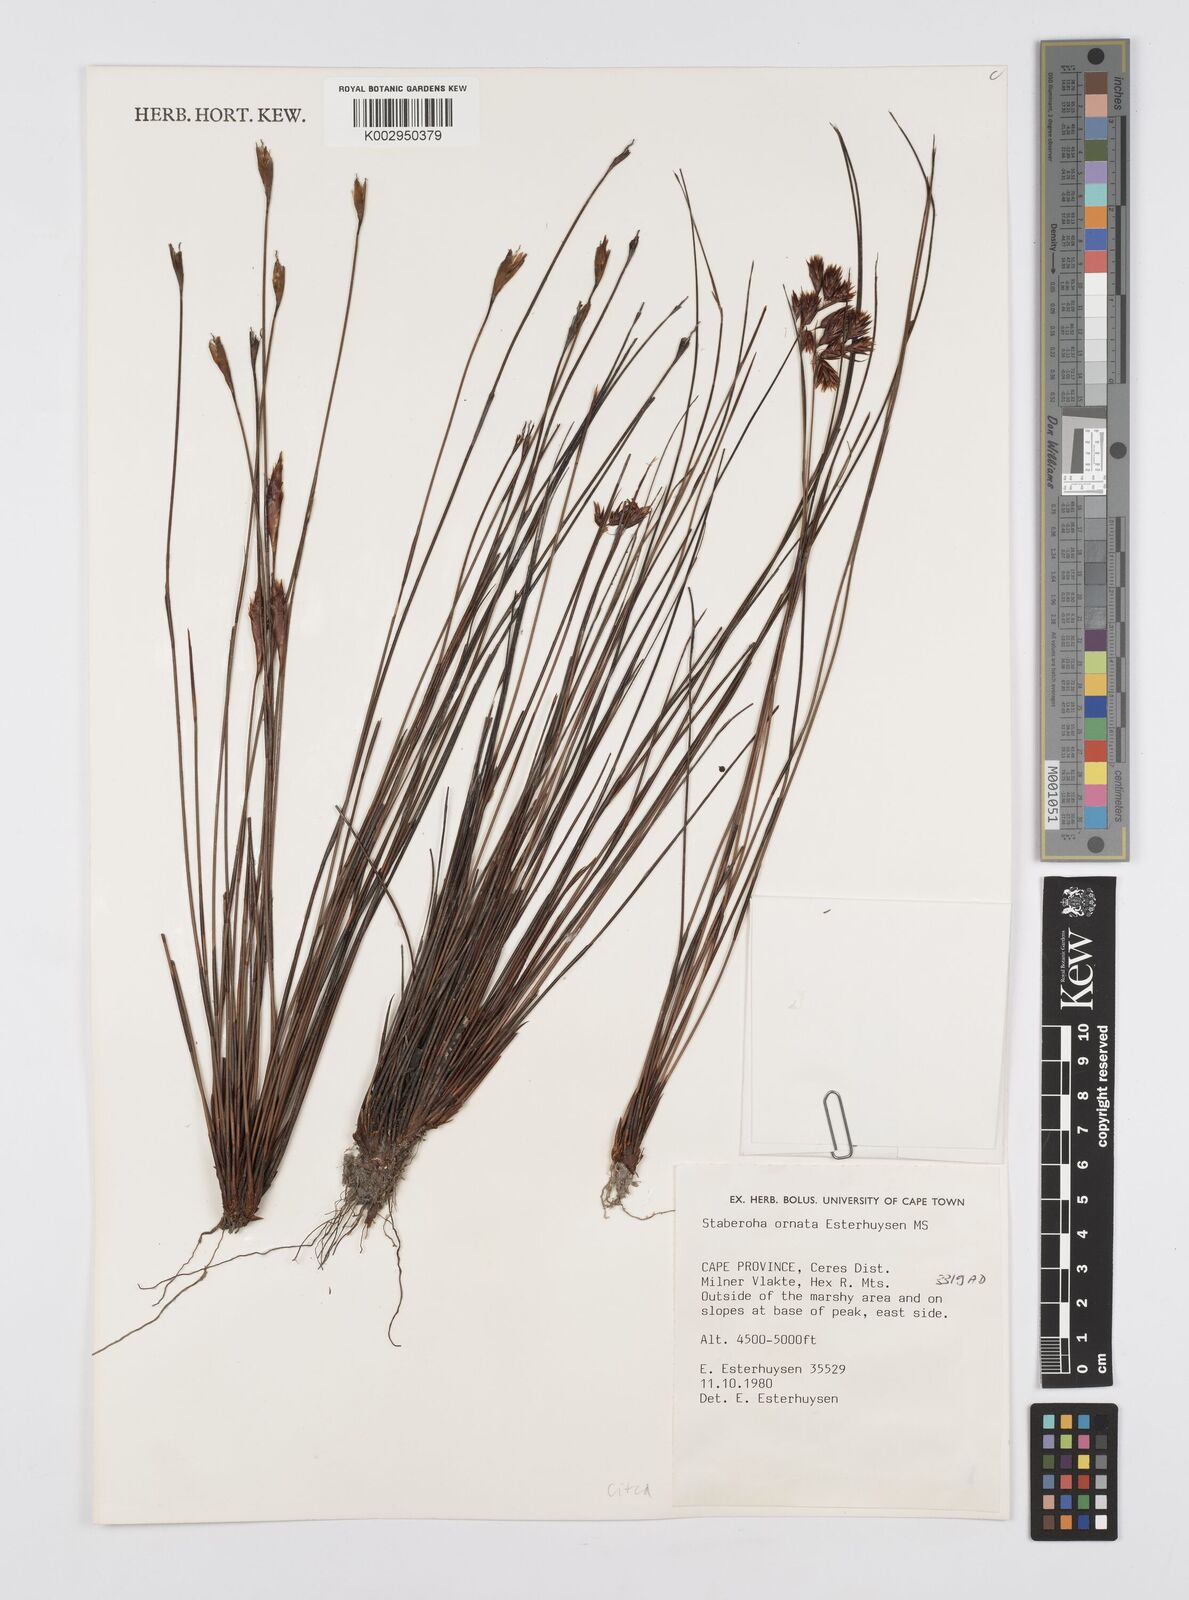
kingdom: Plantae
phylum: Tracheophyta
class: Liliopsida
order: Poales
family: Restionaceae
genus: Staberoha
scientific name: Staberoha ornata
